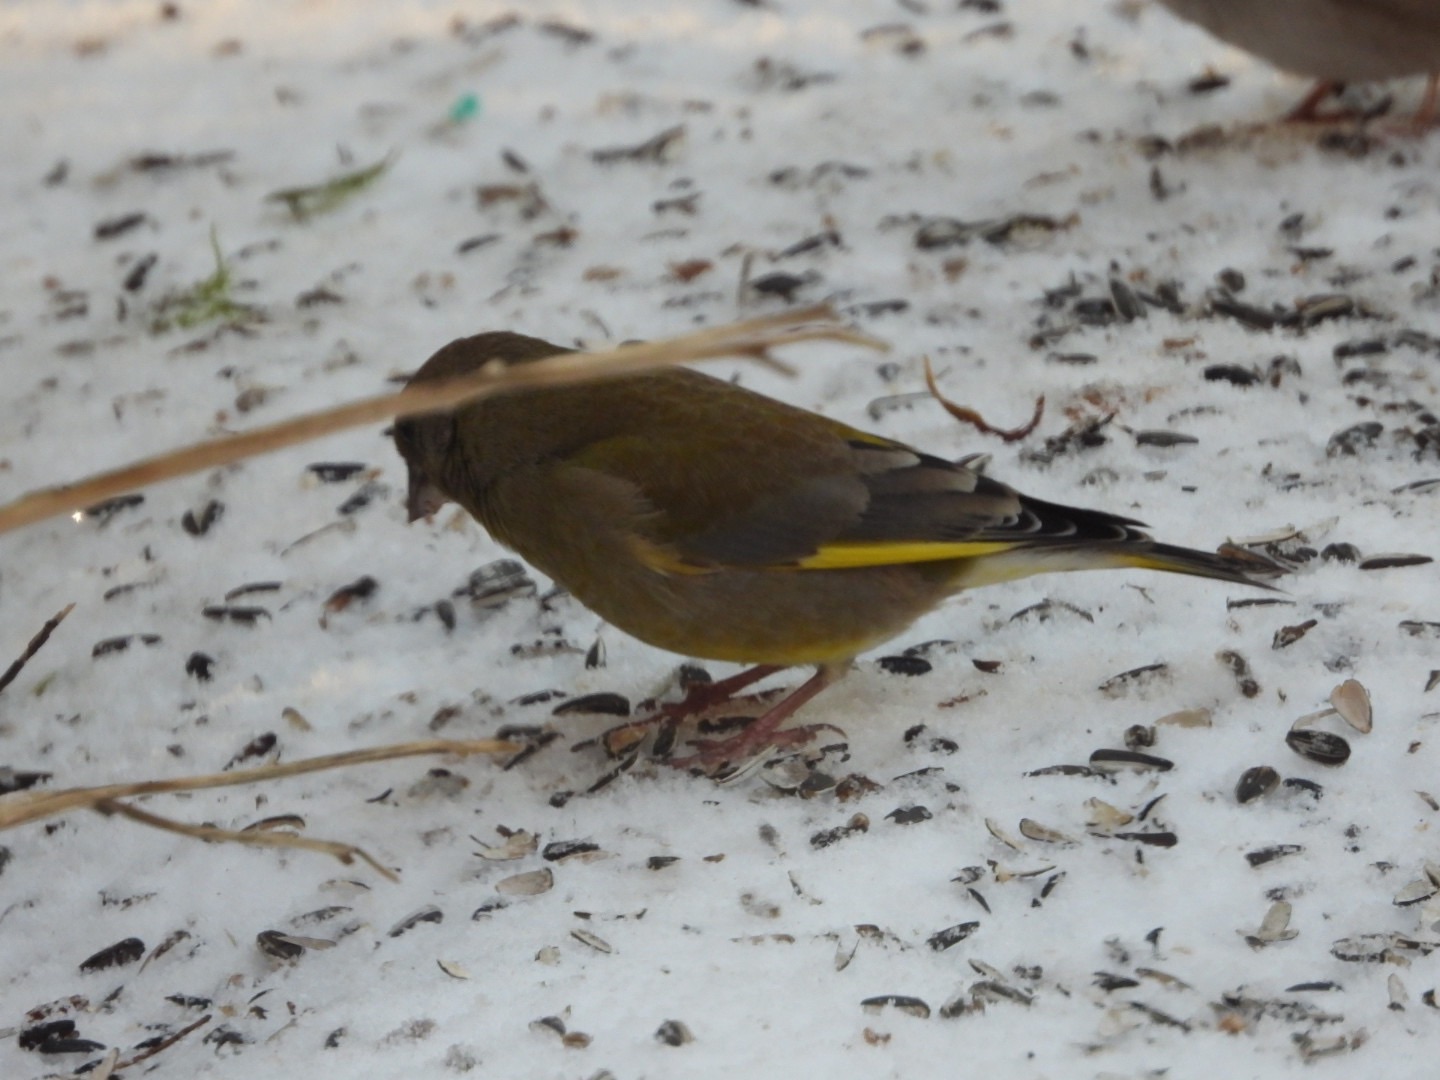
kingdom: Plantae
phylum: Tracheophyta
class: Liliopsida
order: Poales
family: Poaceae
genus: Chloris
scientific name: Chloris chloris
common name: Grønirisk
